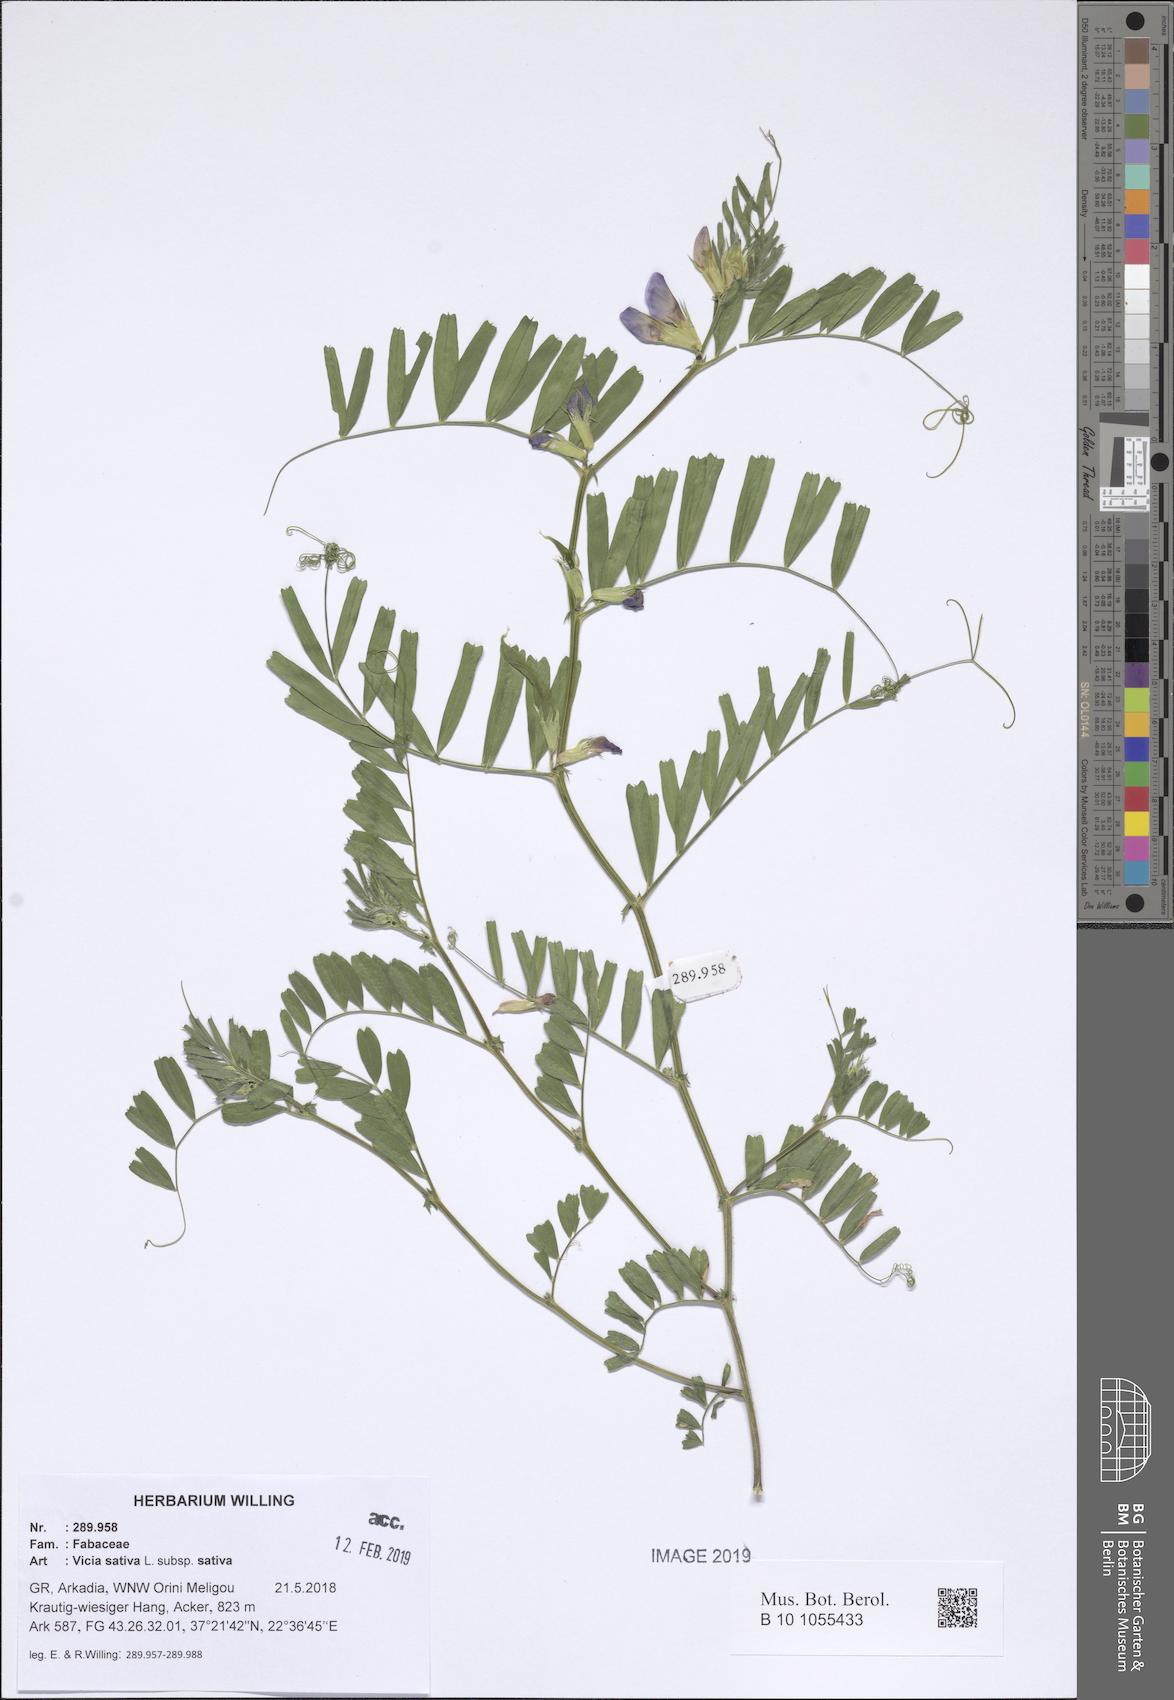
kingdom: Plantae
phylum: Tracheophyta
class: Magnoliopsida
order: Fabales
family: Fabaceae
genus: Vicia
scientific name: Vicia sativa
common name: Garden vetch
